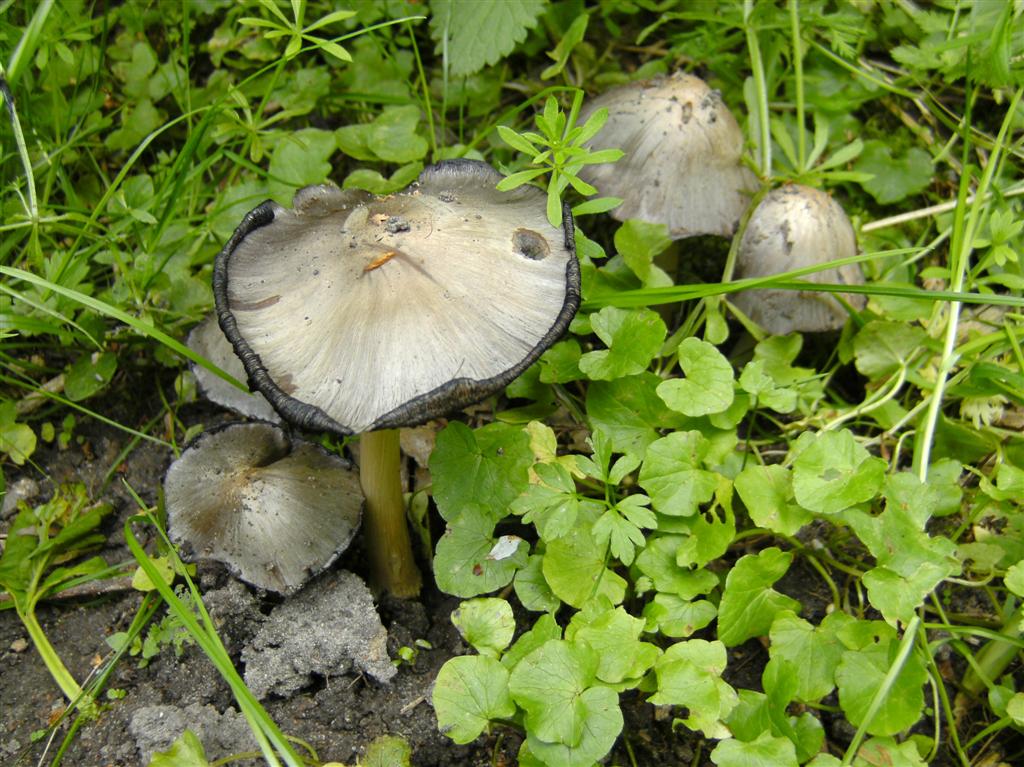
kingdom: Fungi
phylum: Basidiomycota
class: Agaricomycetes
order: Agaricales
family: Psathyrellaceae
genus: Coprinopsis
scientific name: Coprinopsis atramentaria
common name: almindelig blækhat
